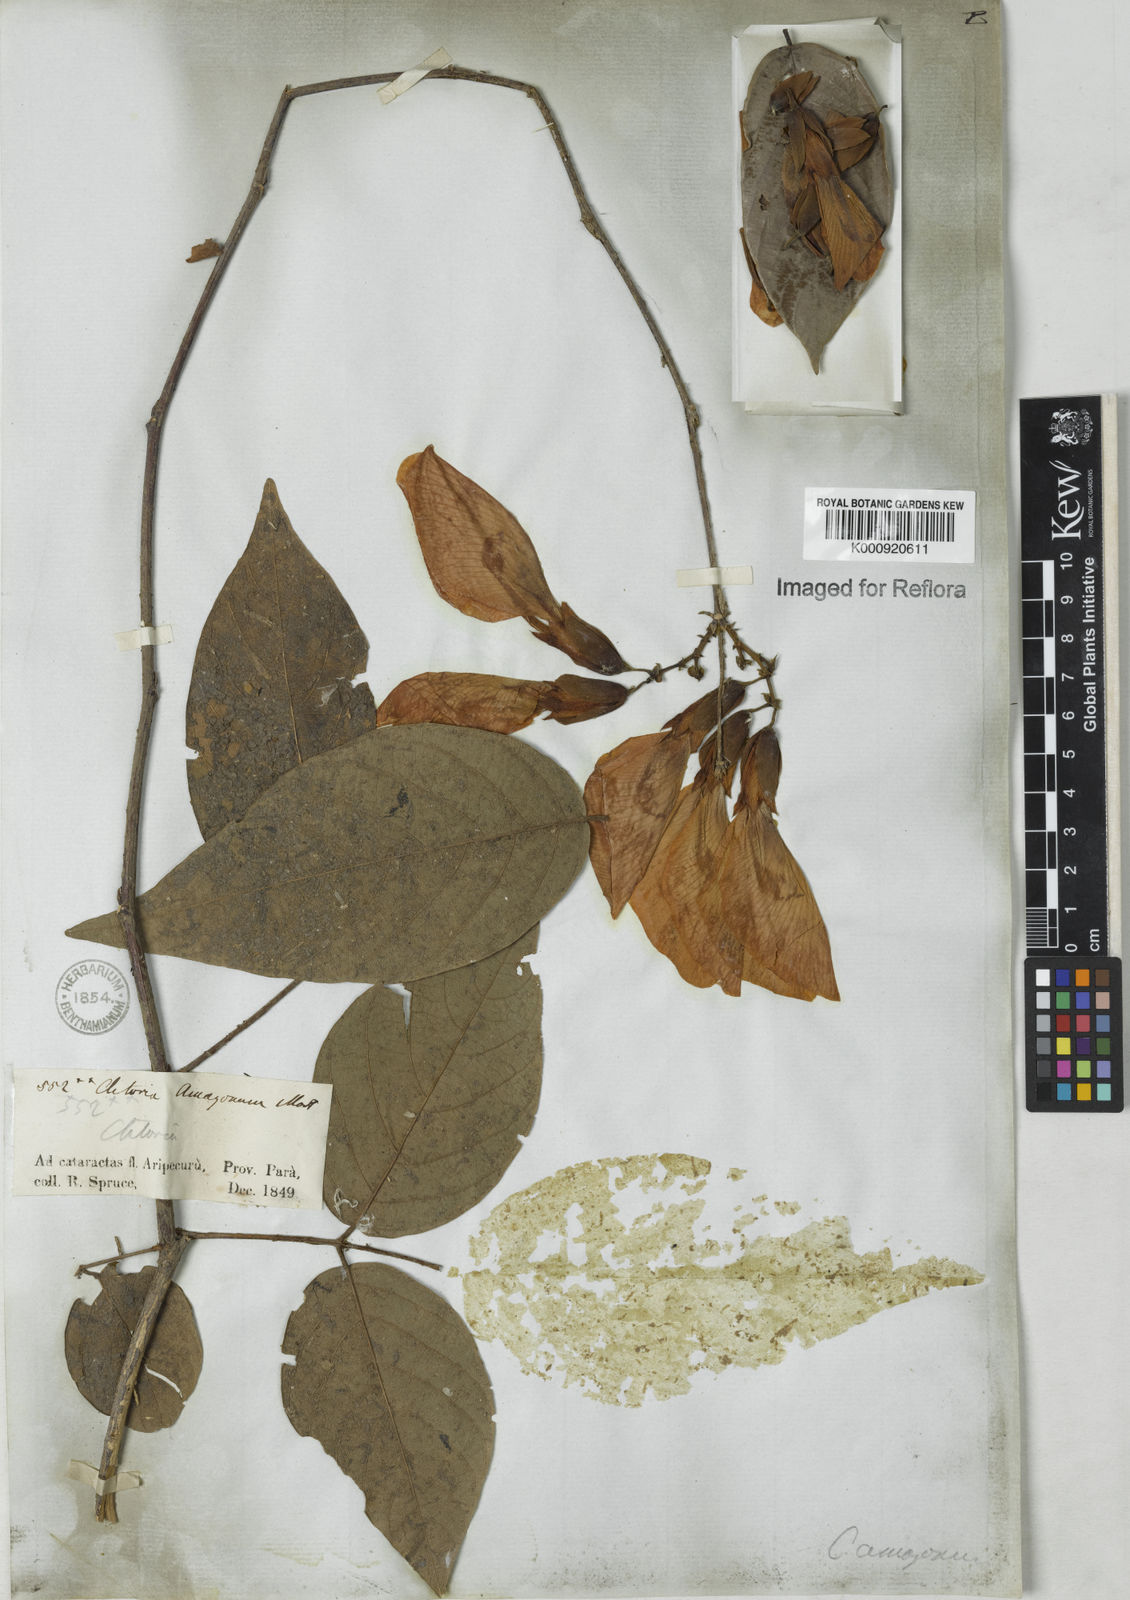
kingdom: Plantae
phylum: Tracheophyta
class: Magnoliopsida
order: Fabales
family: Fabaceae
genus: Clitoria
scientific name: Clitoria amazonum
